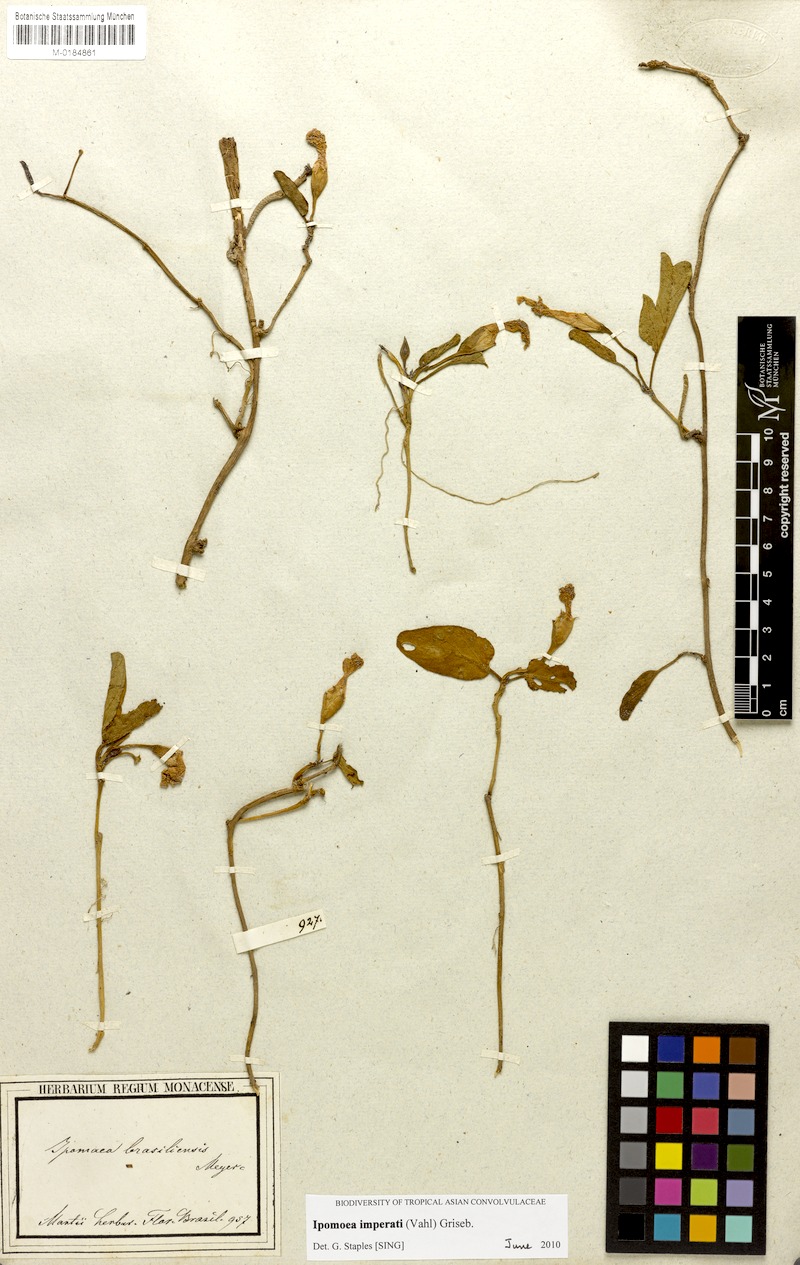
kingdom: Plantae
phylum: Tracheophyta
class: Magnoliopsida
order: Solanales
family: Convolvulaceae
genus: Ipomoea
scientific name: Ipomoea imperati
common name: Fiddle-leaf morning-glory
